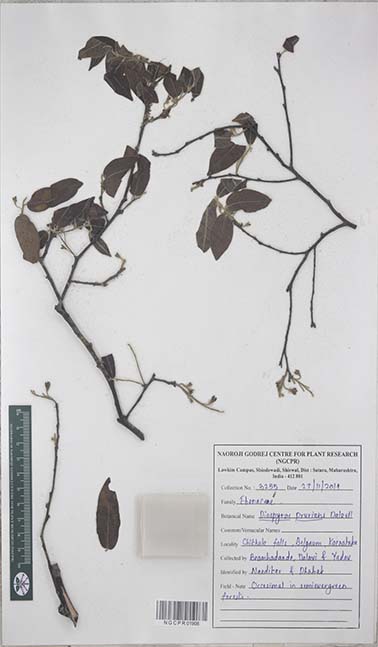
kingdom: Plantae
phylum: Tracheophyta
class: Magnoliopsida
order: Ericales
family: Ebenaceae
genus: Diospyros
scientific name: Diospyros pruriens
